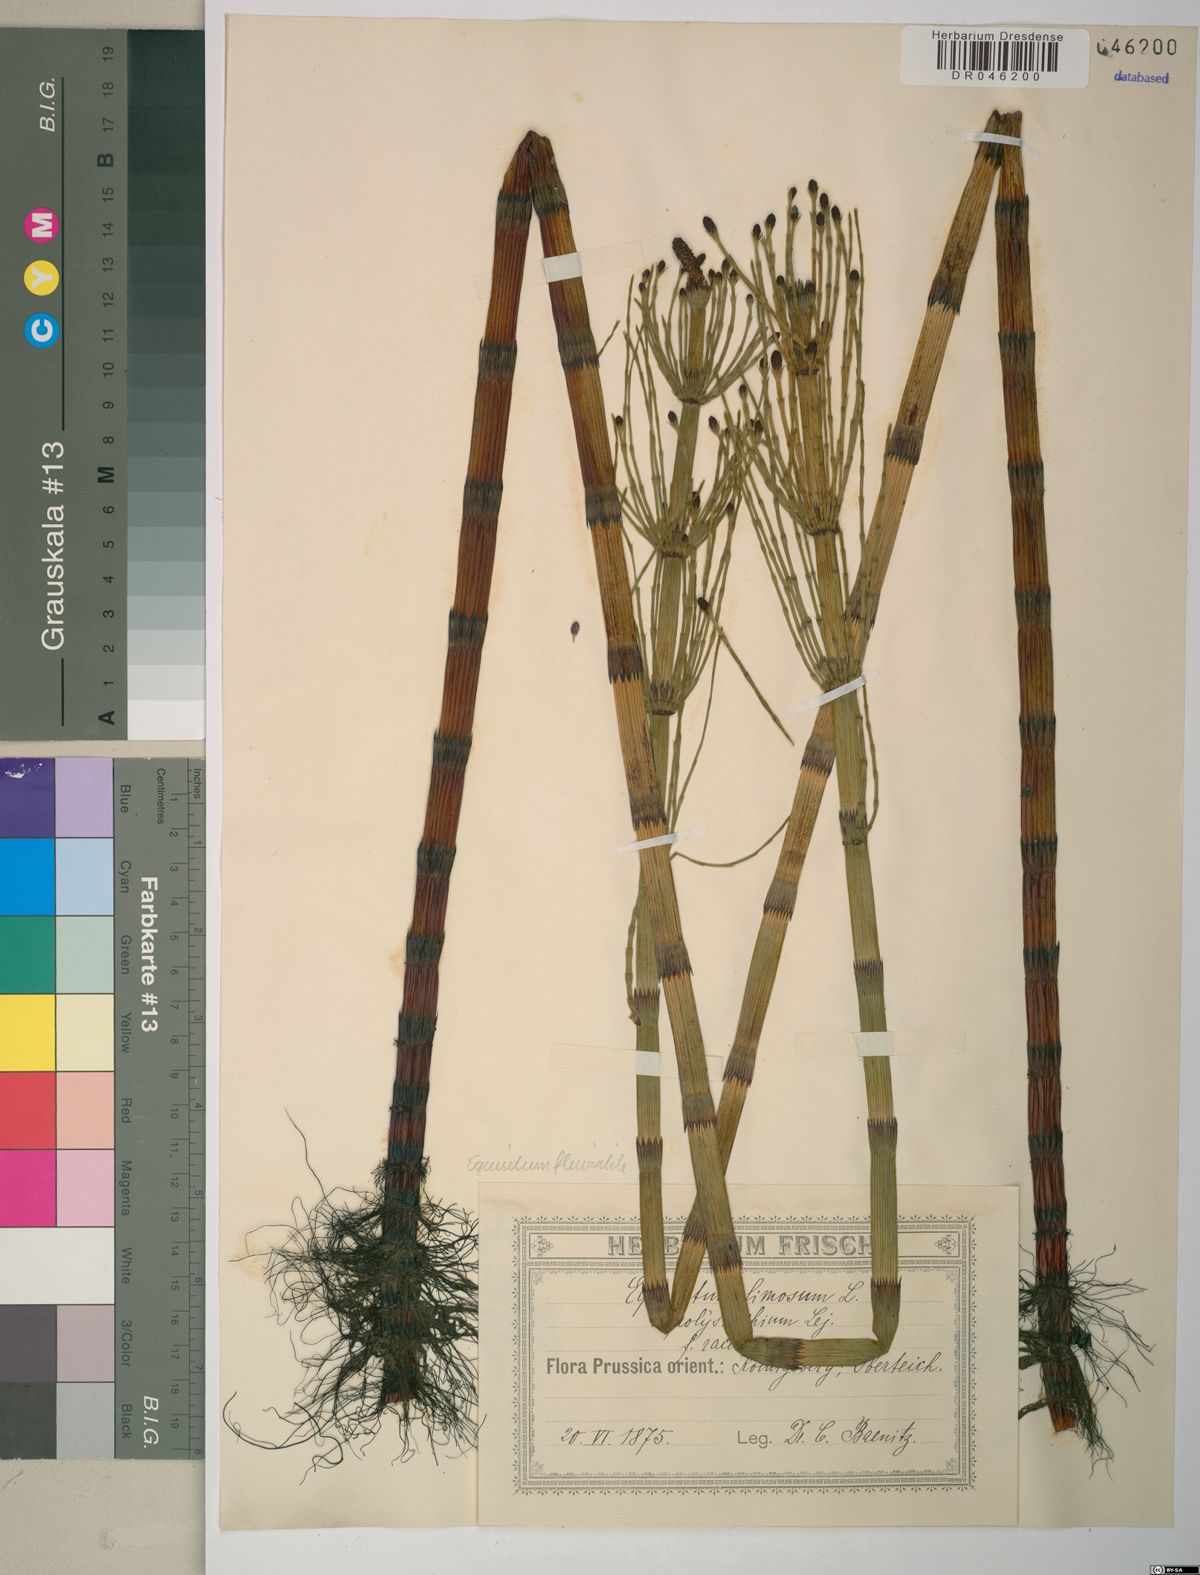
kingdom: Plantae
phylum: Tracheophyta
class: Polypodiopsida
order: Equisetales
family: Equisetaceae
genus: Equisetum
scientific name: Equisetum fluviatile
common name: Water horsetail
